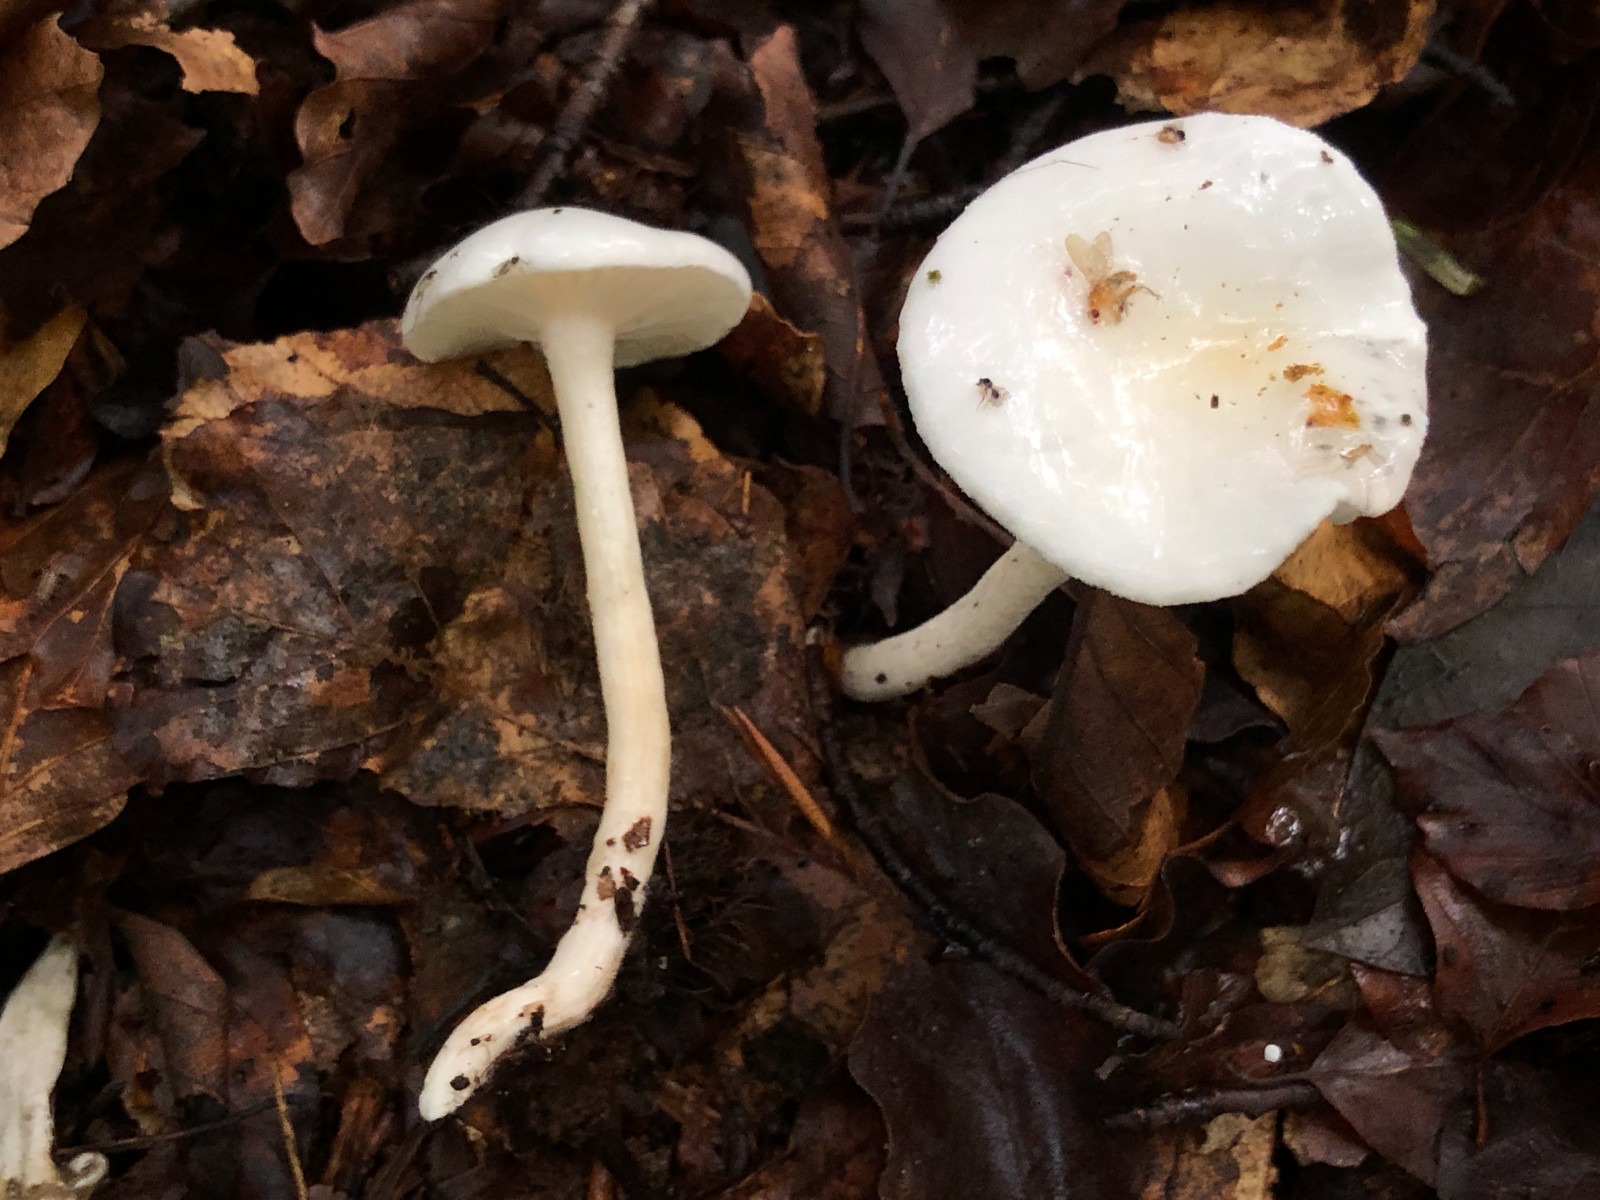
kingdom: Fungi
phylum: Basidiomycota
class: Agaricomycetes
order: Agaricales
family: Hygrophoraceae
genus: Hygrophorus
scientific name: Hygrophorus eburneus
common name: elfenbens-sneglehat
